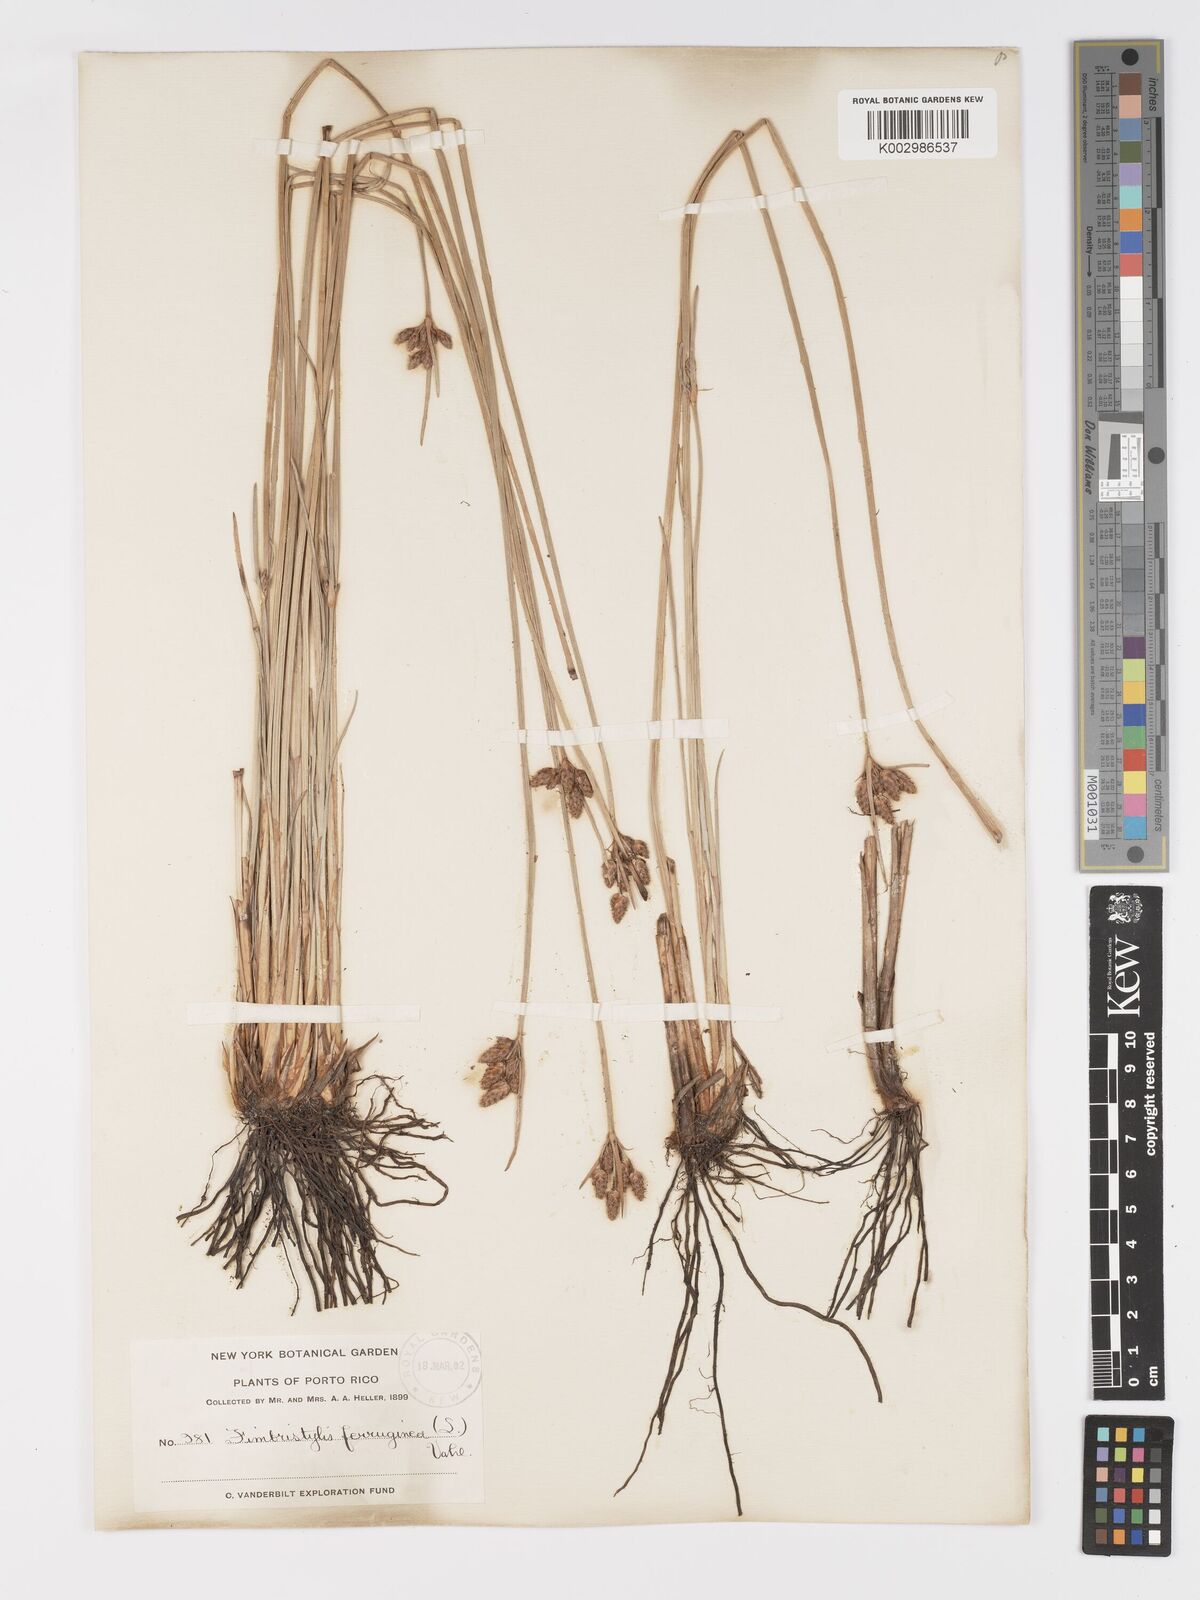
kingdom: Plantae
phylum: Tracheophyta
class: Liliopsida
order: Poales
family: Cyperaceae
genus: Fimbristylis
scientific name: Fimbristylis ferruginea
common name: West indian fimbry
